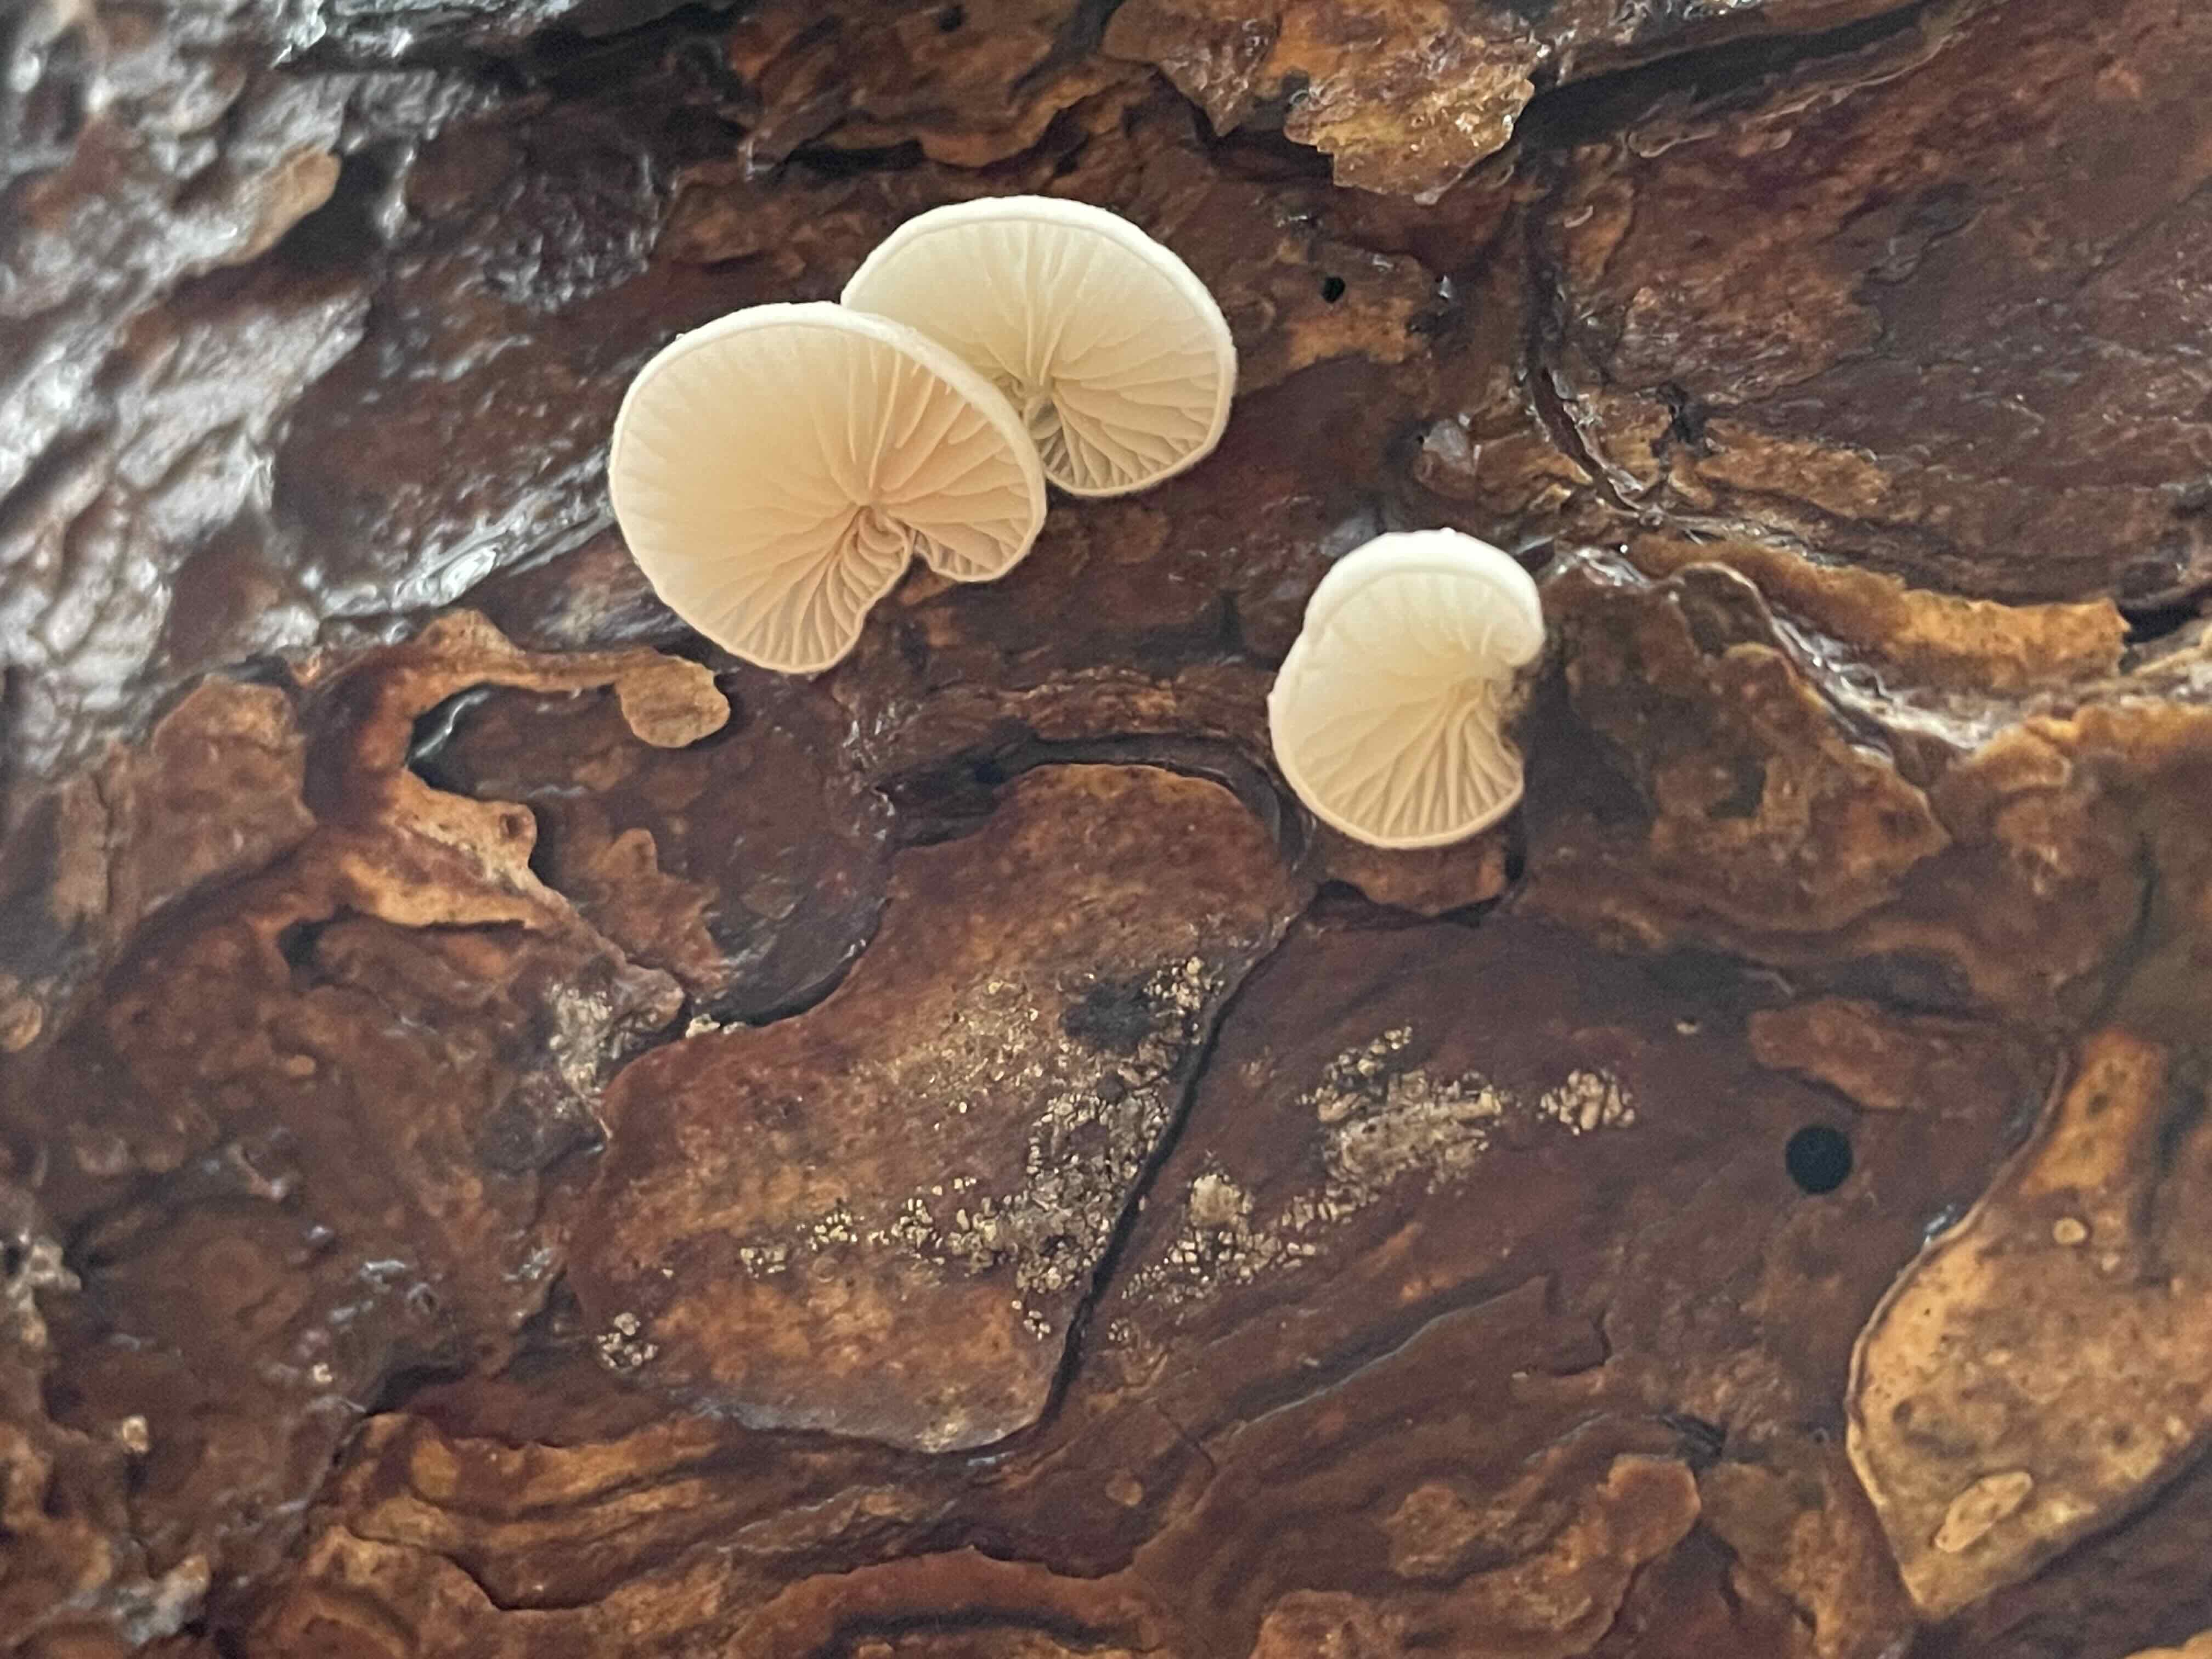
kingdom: Fungi
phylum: Basidiomycota
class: Agaricomycetes
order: Agaricales
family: Crepidotaceae
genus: Crepidotus
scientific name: Crepidotus
